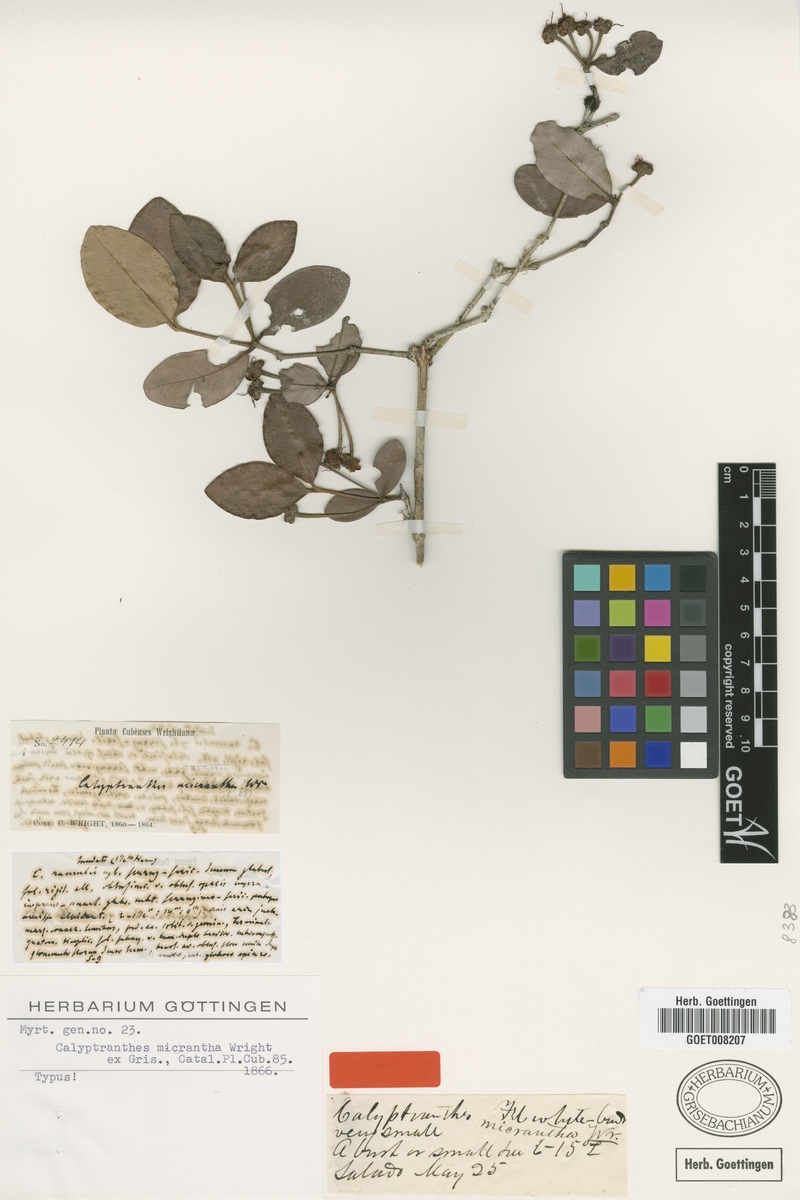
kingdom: Plantae
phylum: Tracheophyta
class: Magnoliopsida
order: Myrtales
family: Myrtaceae
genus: Myrcia
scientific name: Myrcia parviantha
